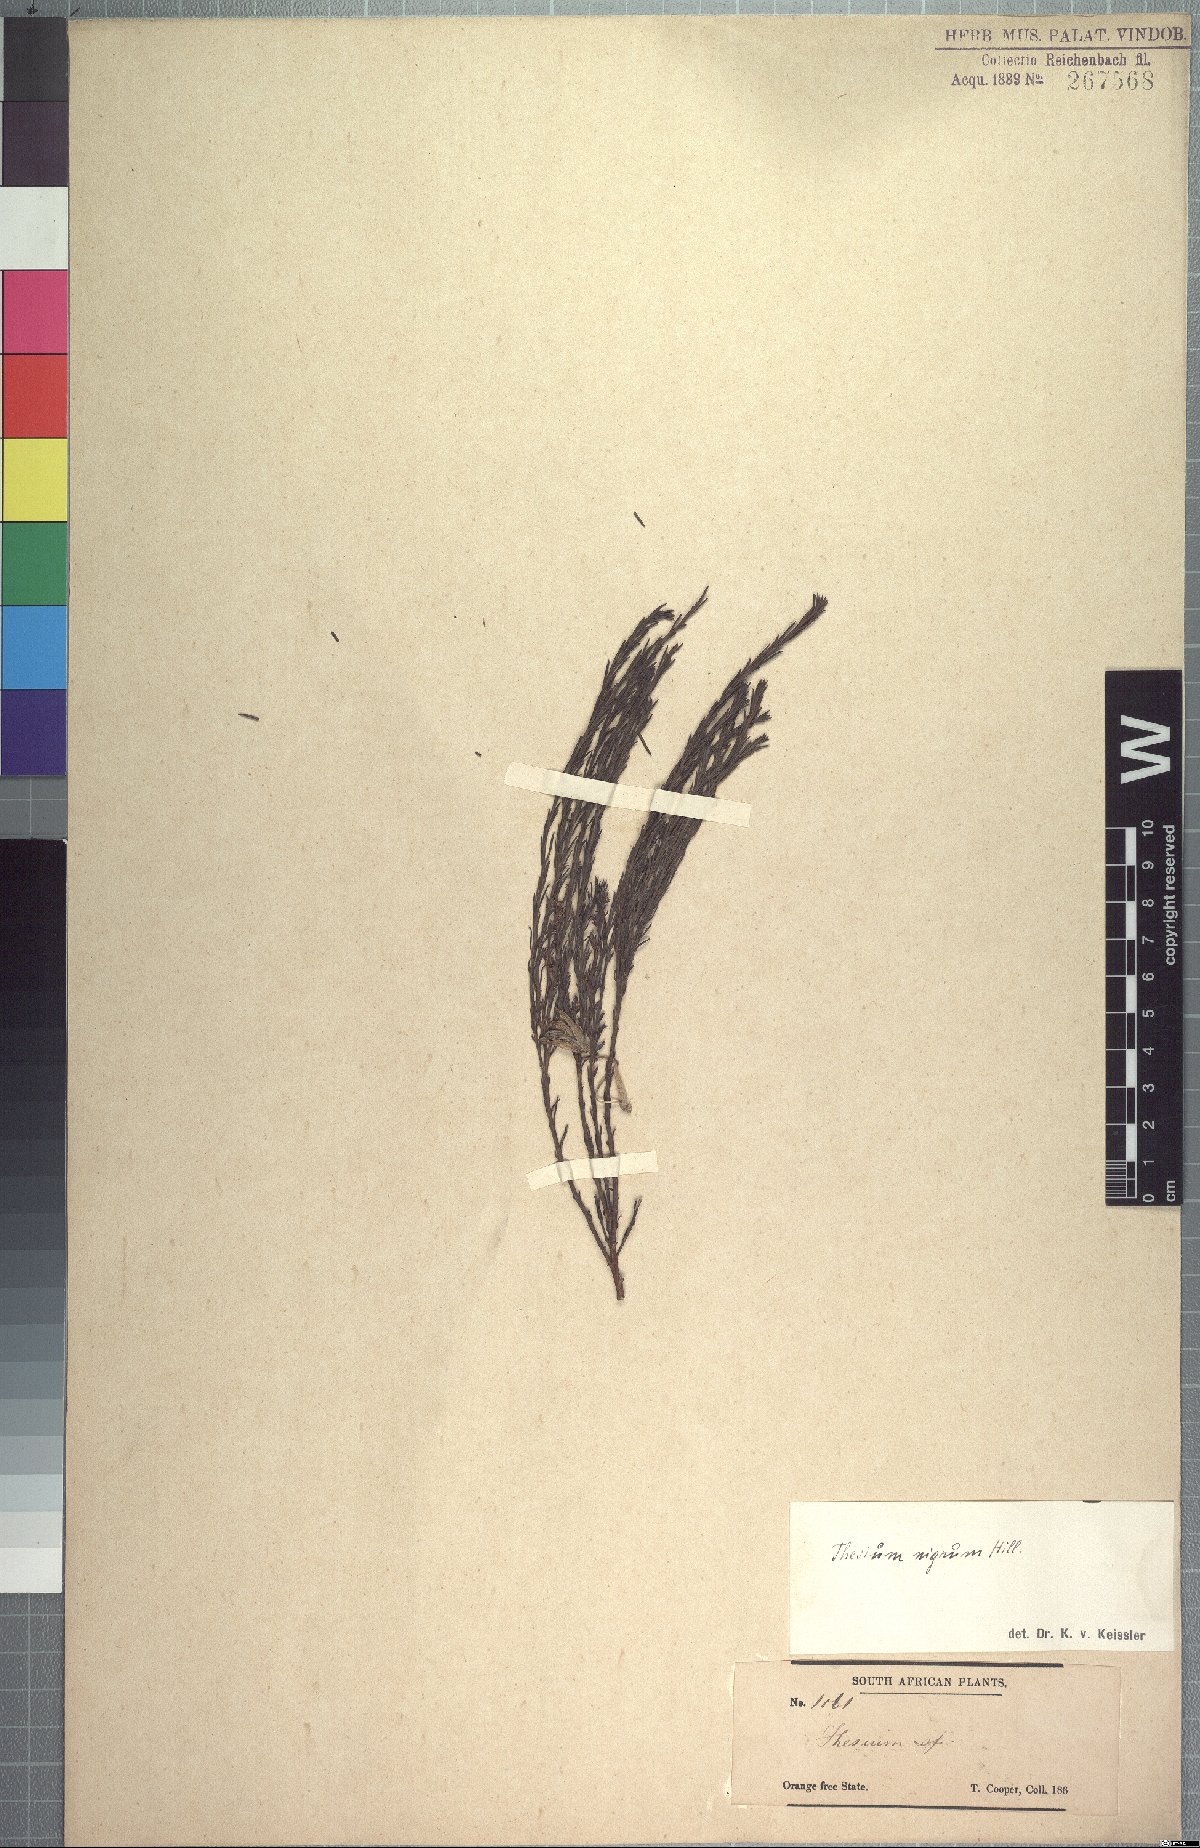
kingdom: Plantae
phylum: Tracheophyta
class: Magnoliopsida
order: Santalales
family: Thesiaceae
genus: Thesium
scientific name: Thesium nigrum
